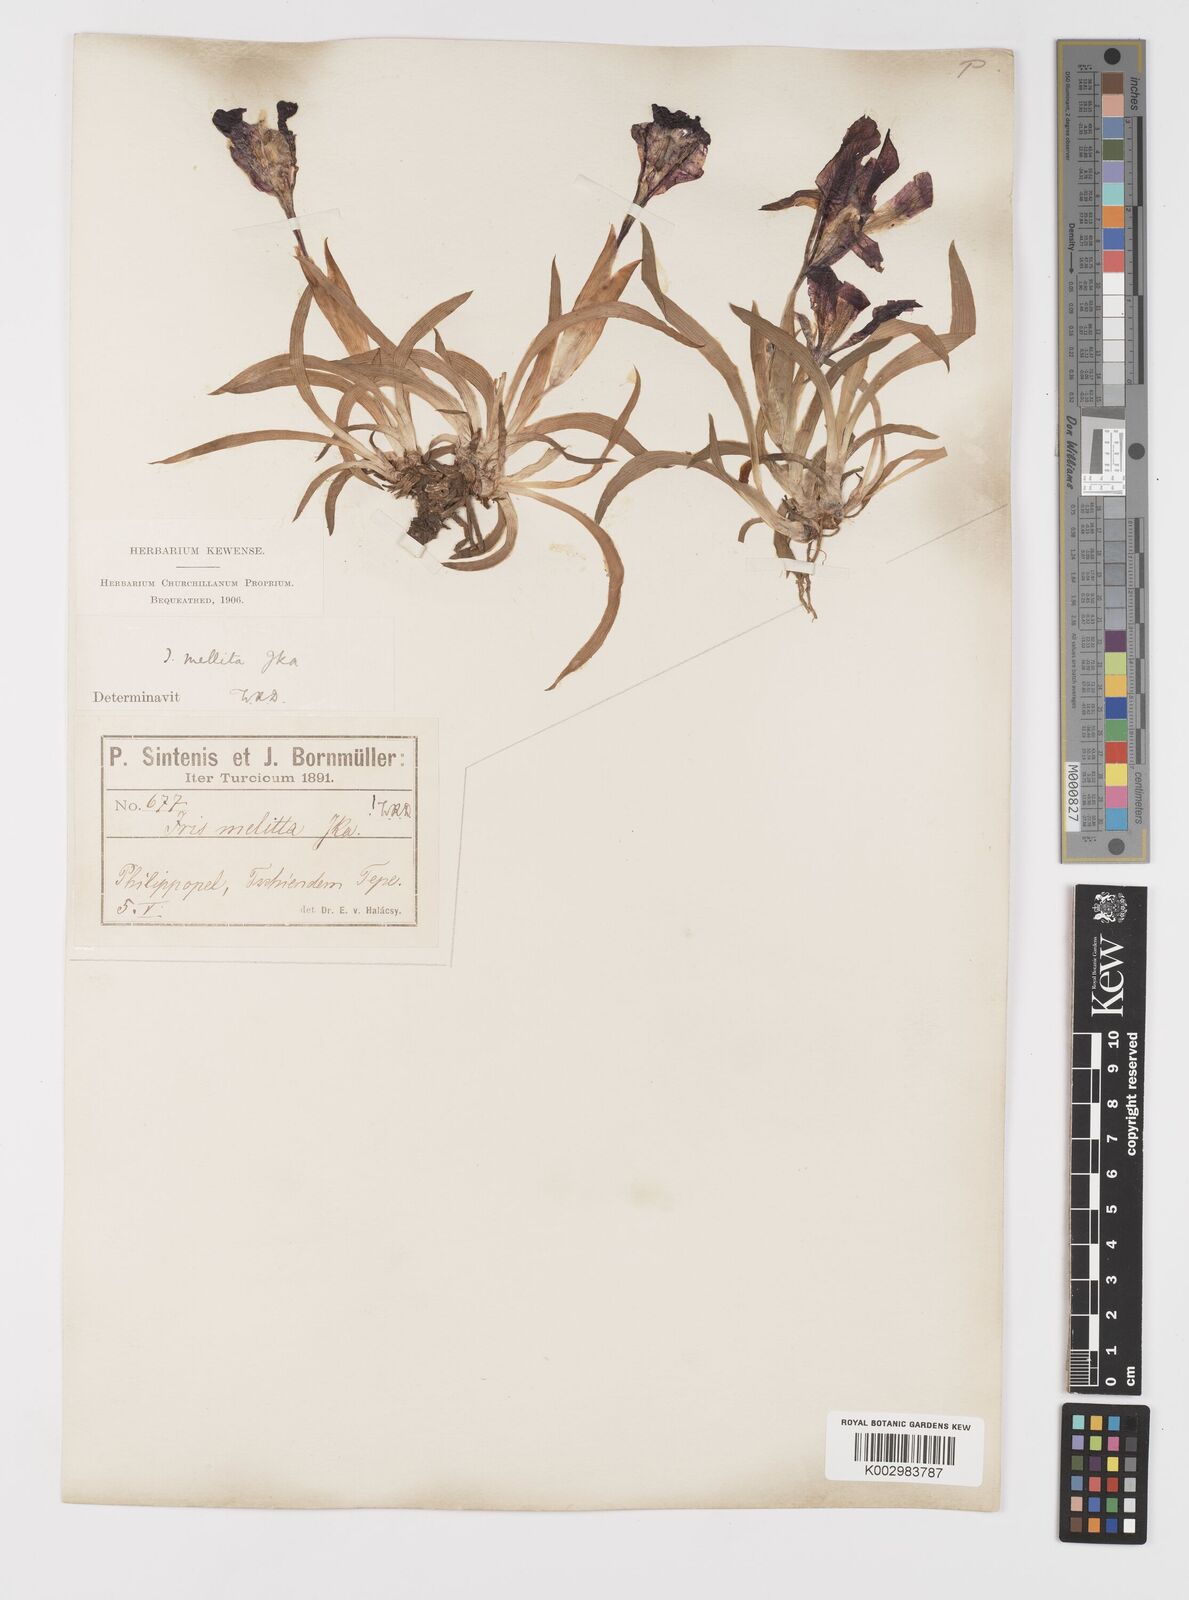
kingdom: Plantae
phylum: Tracheophyta
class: Liliopsida
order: Asparagales
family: Iridaceae
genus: Iris
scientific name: Iris suaveolens
